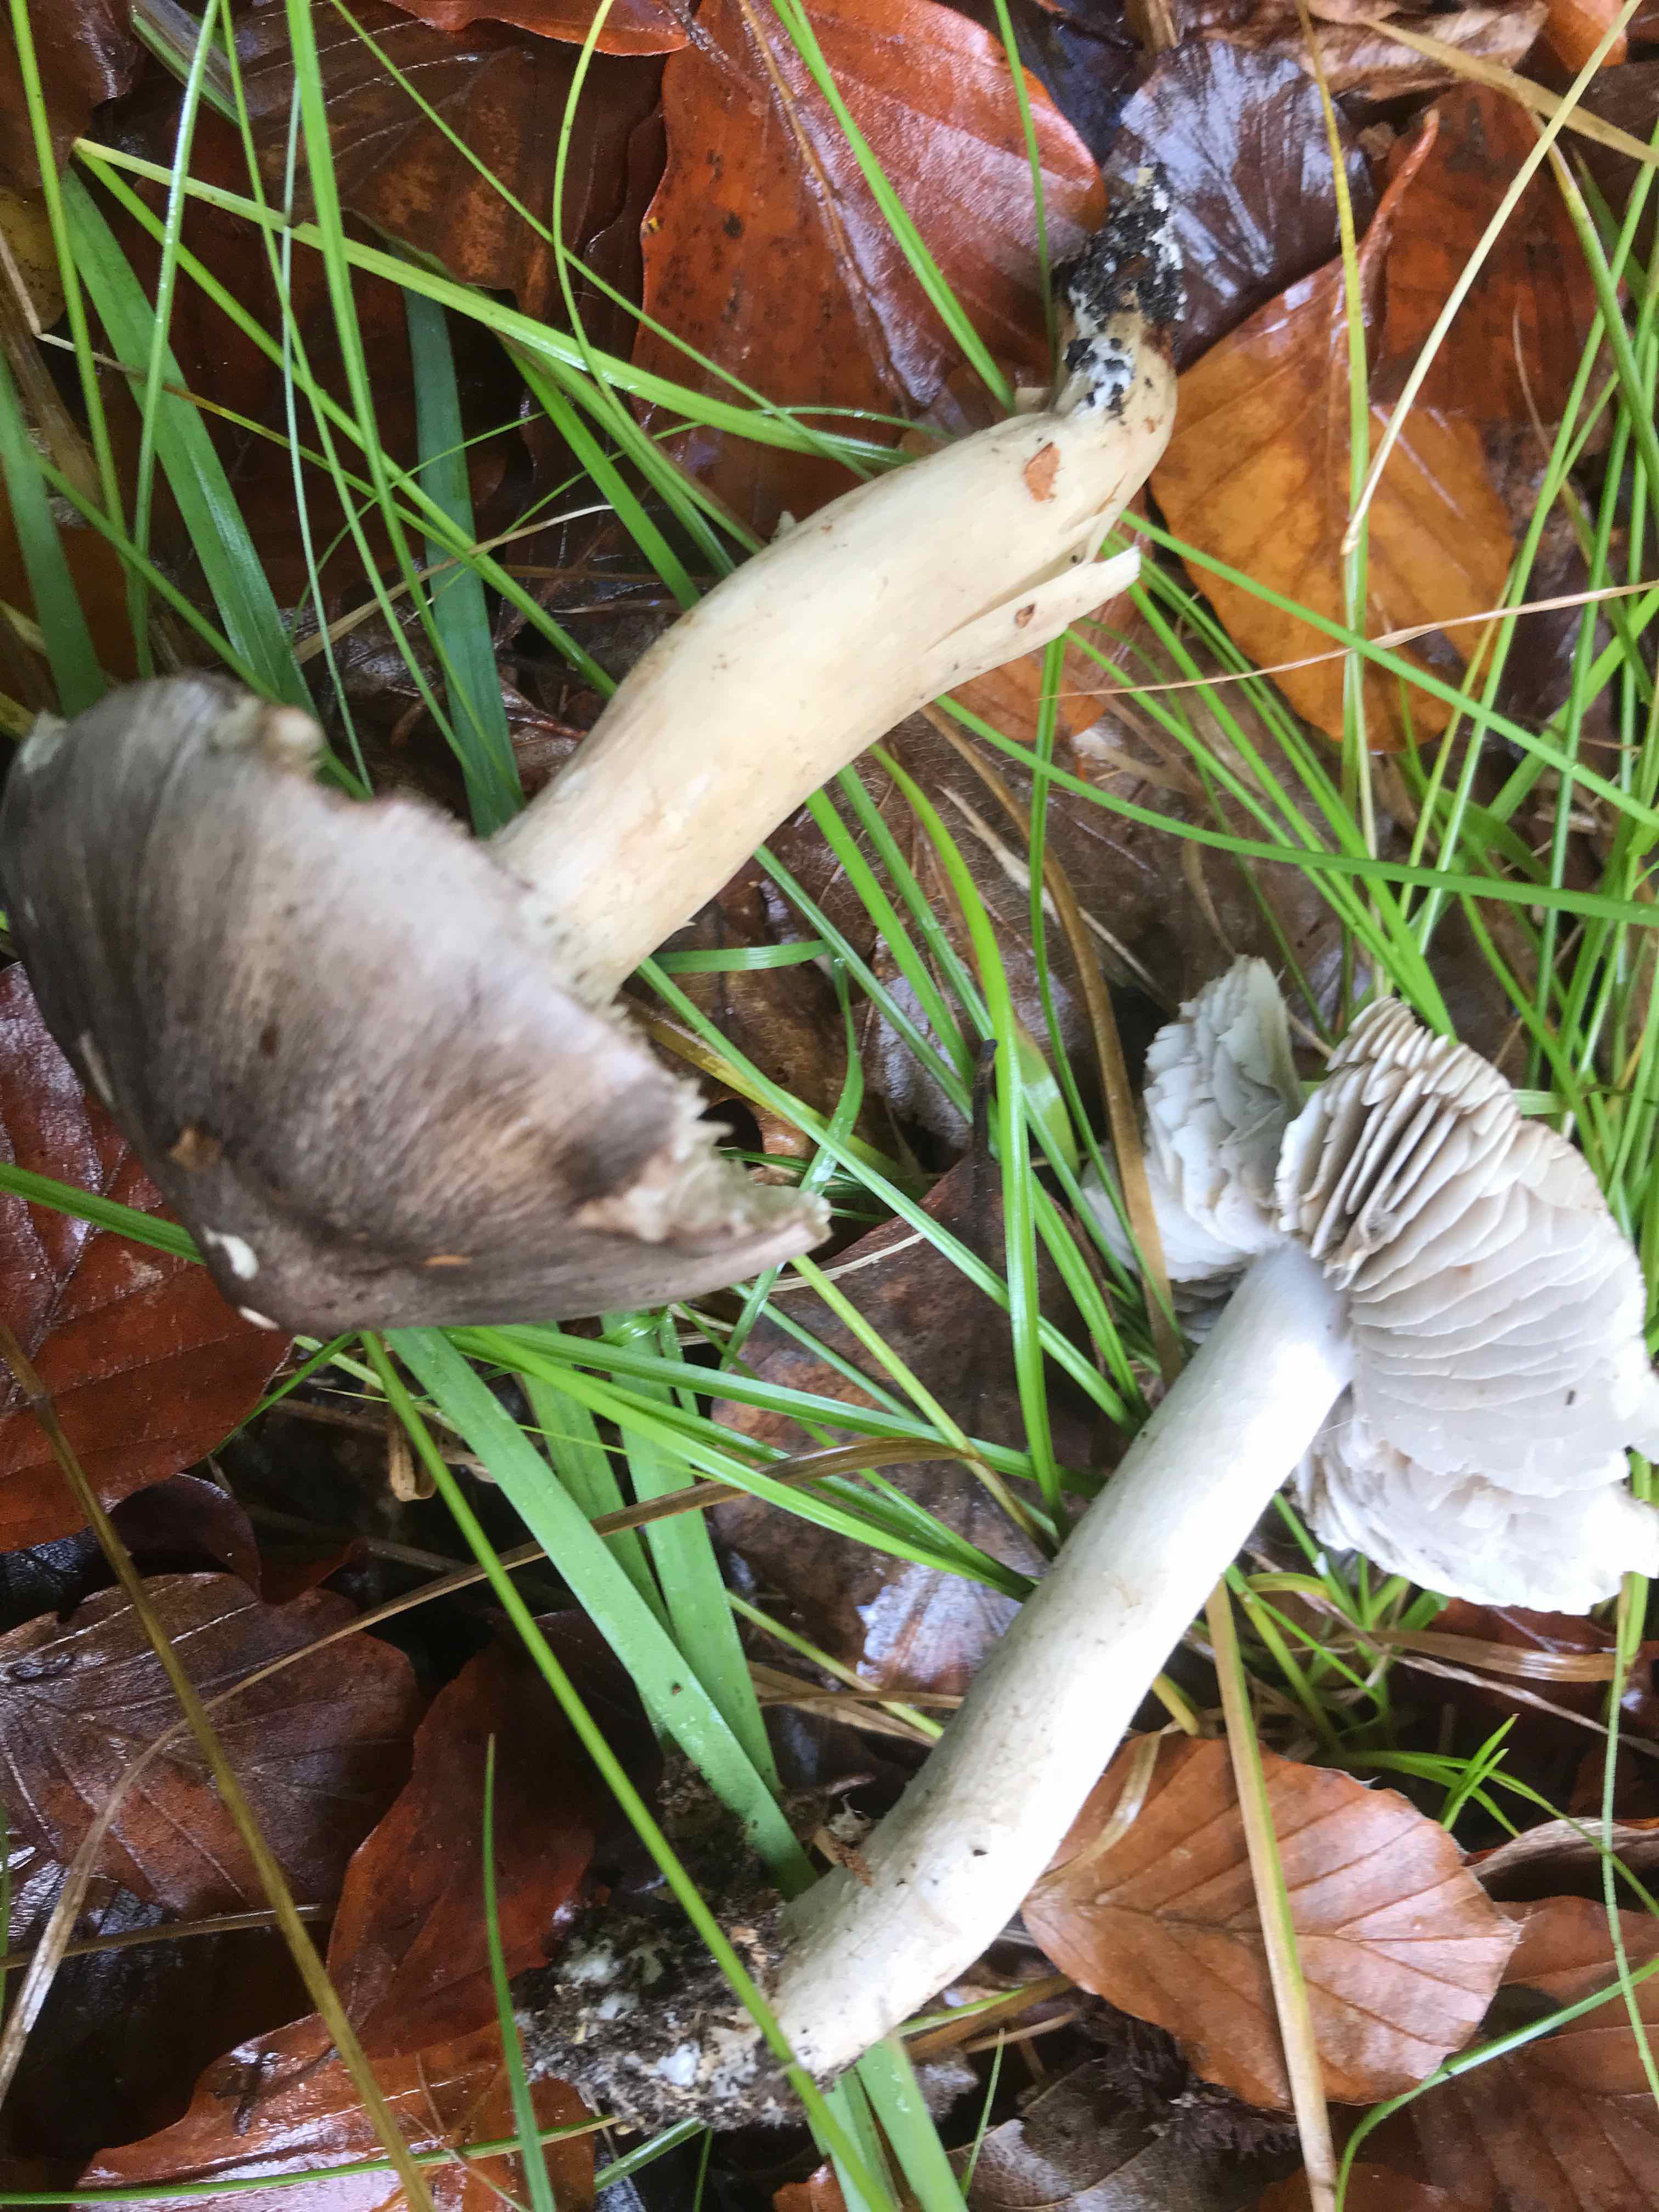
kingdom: Fungi
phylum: Basidiomycota
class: Agaricomycetes
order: Agaricales
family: Tricholomataceae
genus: Tricholoma
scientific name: Tricholoma sciodes
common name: stribet ridderhat
